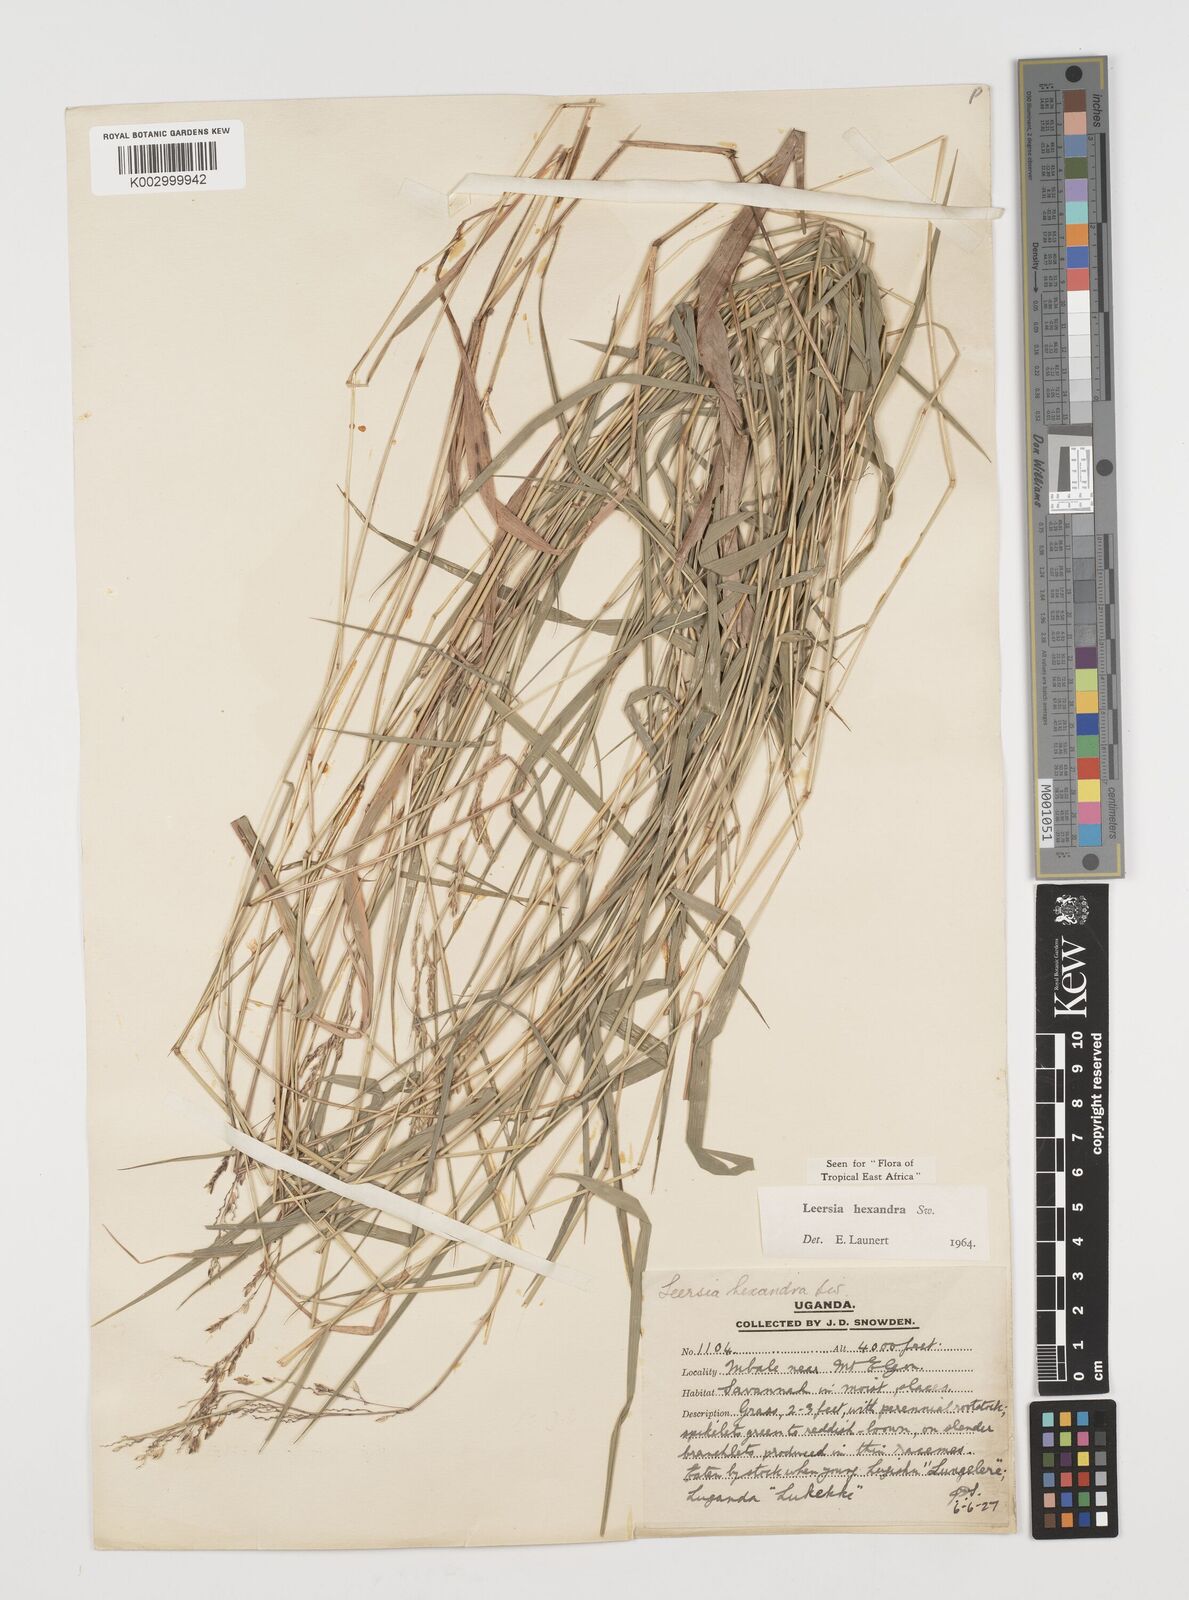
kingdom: Plantae
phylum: Tracheophyta
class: Liliopsida
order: Poales
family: Poaceae
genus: Leersia
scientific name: Leersia hexandra
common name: Southern cut grass
